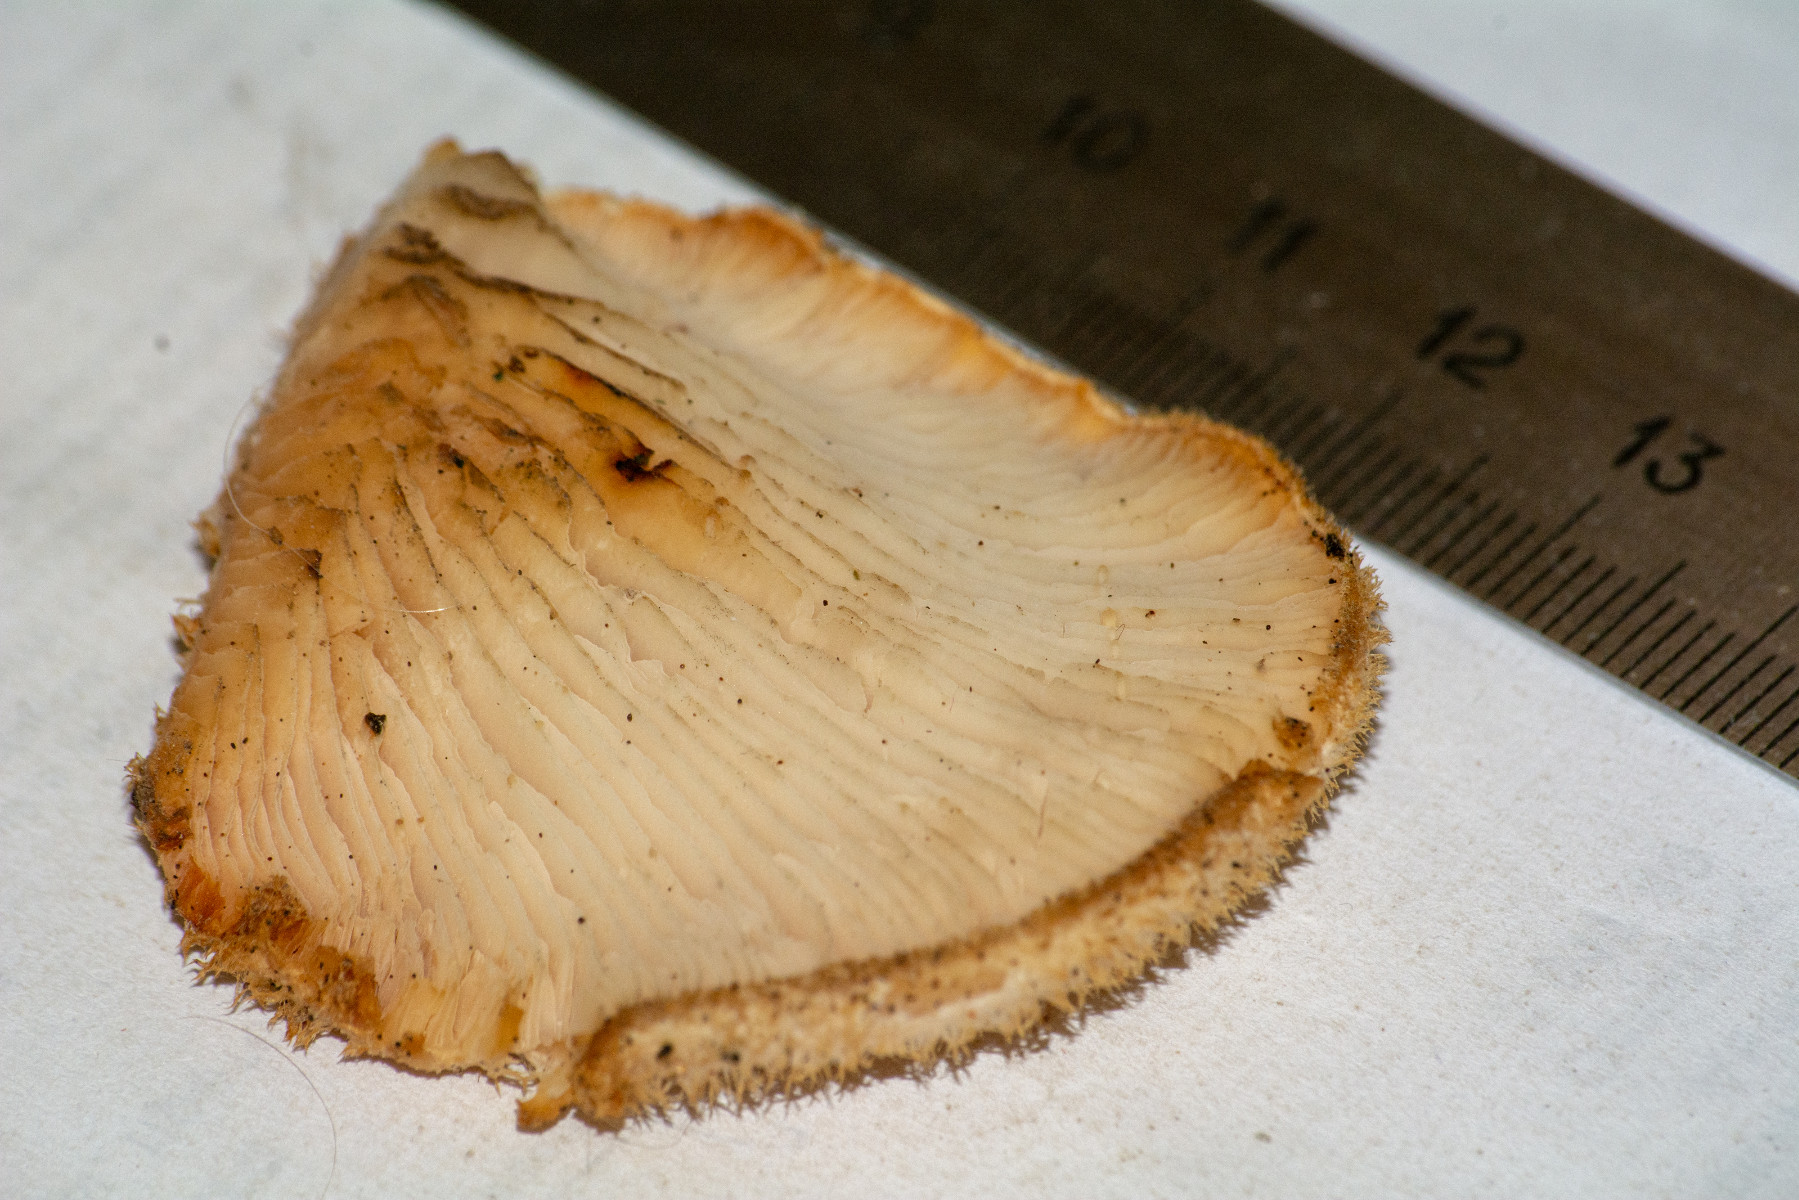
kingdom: Fungi
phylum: Basidiomycota
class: Agaricomycetes
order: Agaricales
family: Pleurotaceae
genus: Hohenbuehelia
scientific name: Hohenbuehelia
